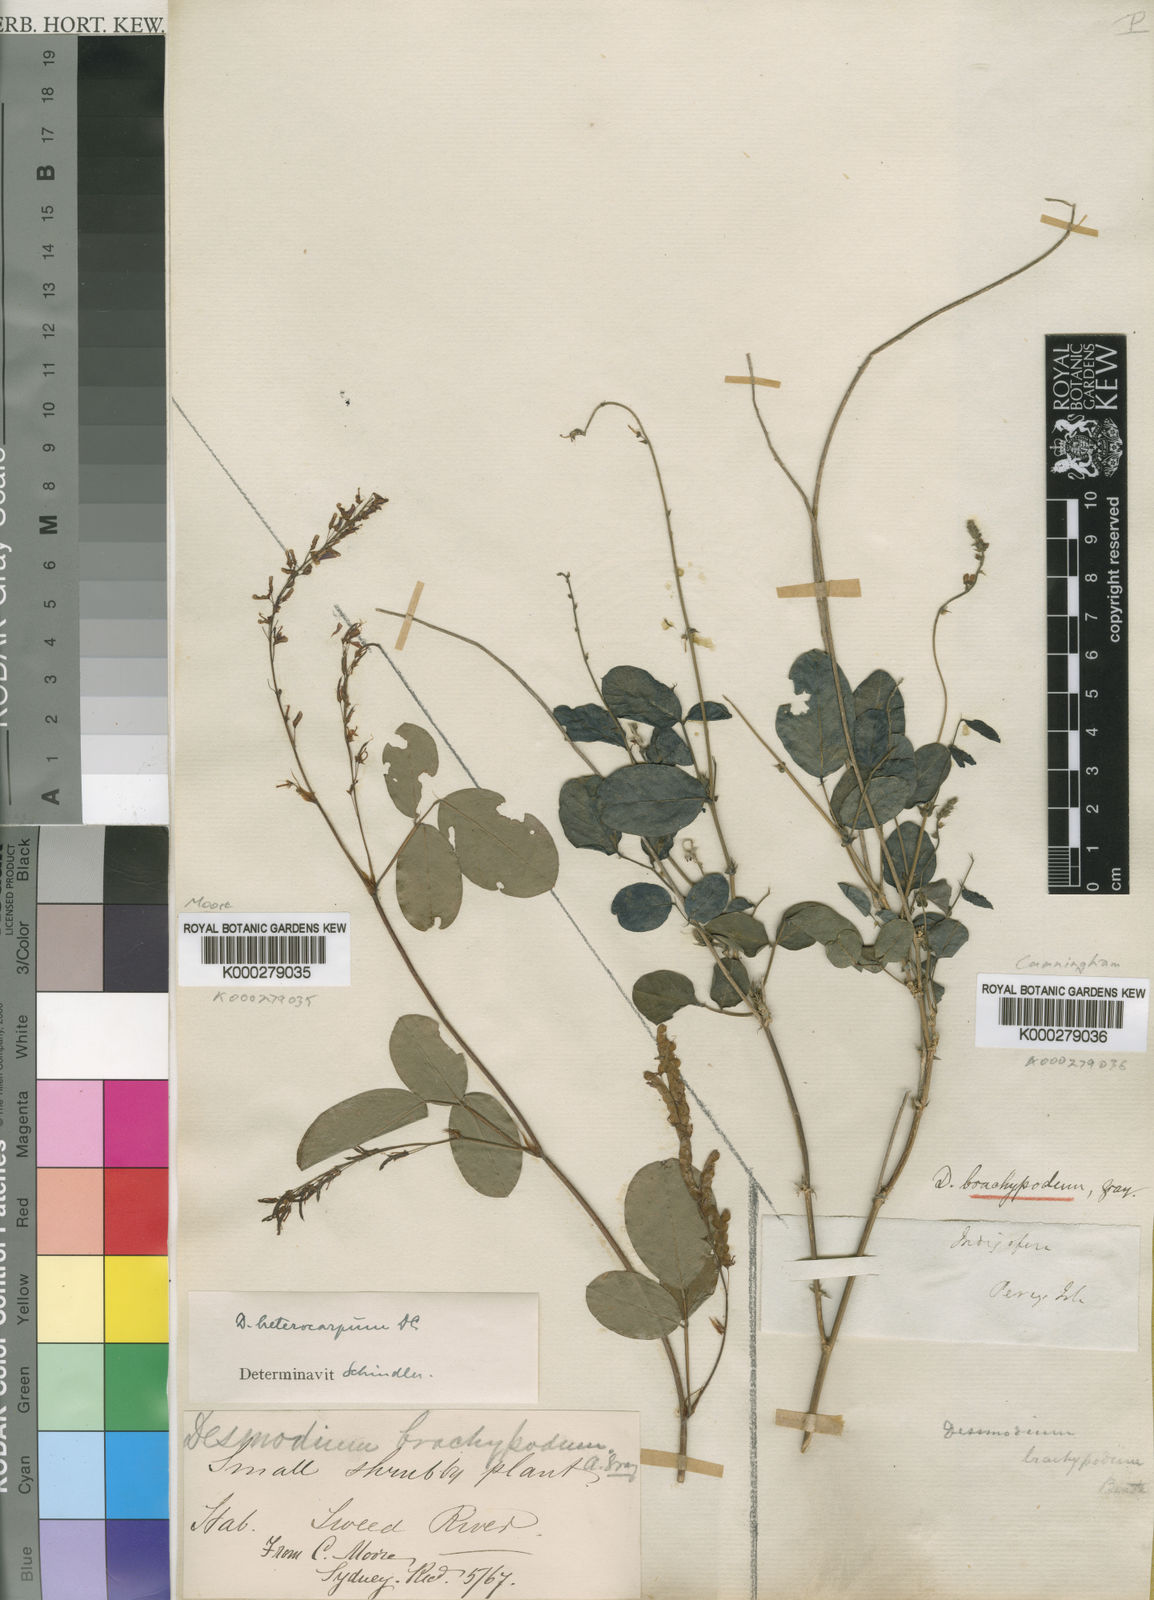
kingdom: Plantae
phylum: Tracheophyta
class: Magnoliopsida
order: Fabales
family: Fabaceae
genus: Oxytes
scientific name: Oxytes brachypoda
